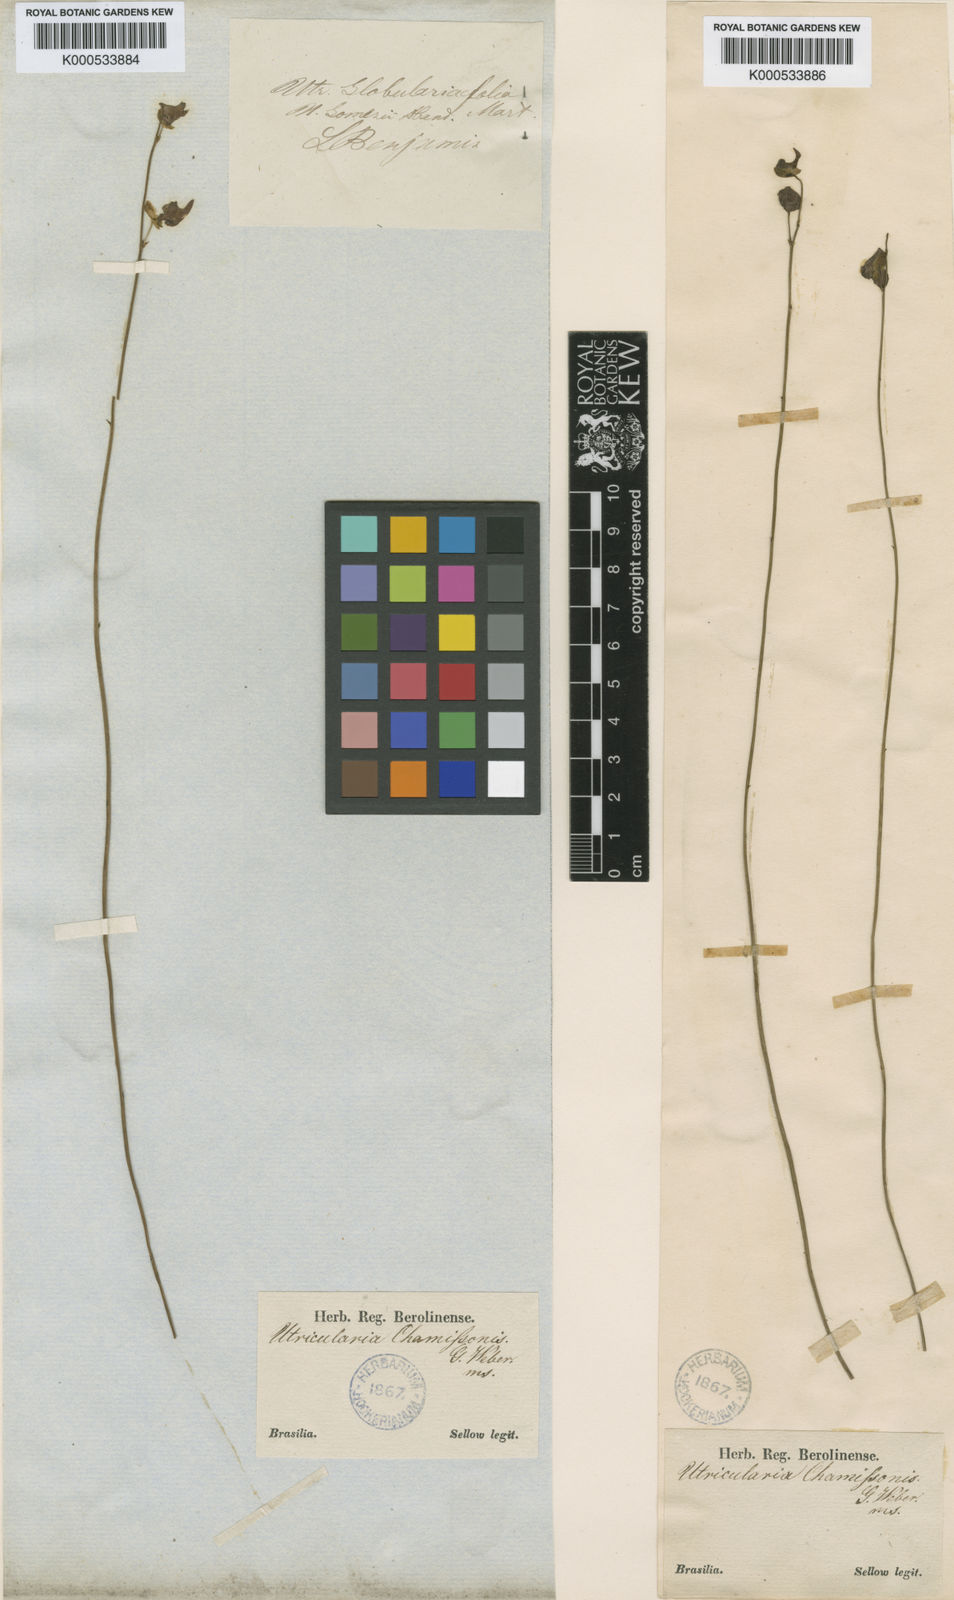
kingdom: Plantae
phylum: Tracheophyta
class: Magnoliopsida
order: Lamiales
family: Lentibulariaceae
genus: Utricularia
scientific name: Utricularia tricolor
